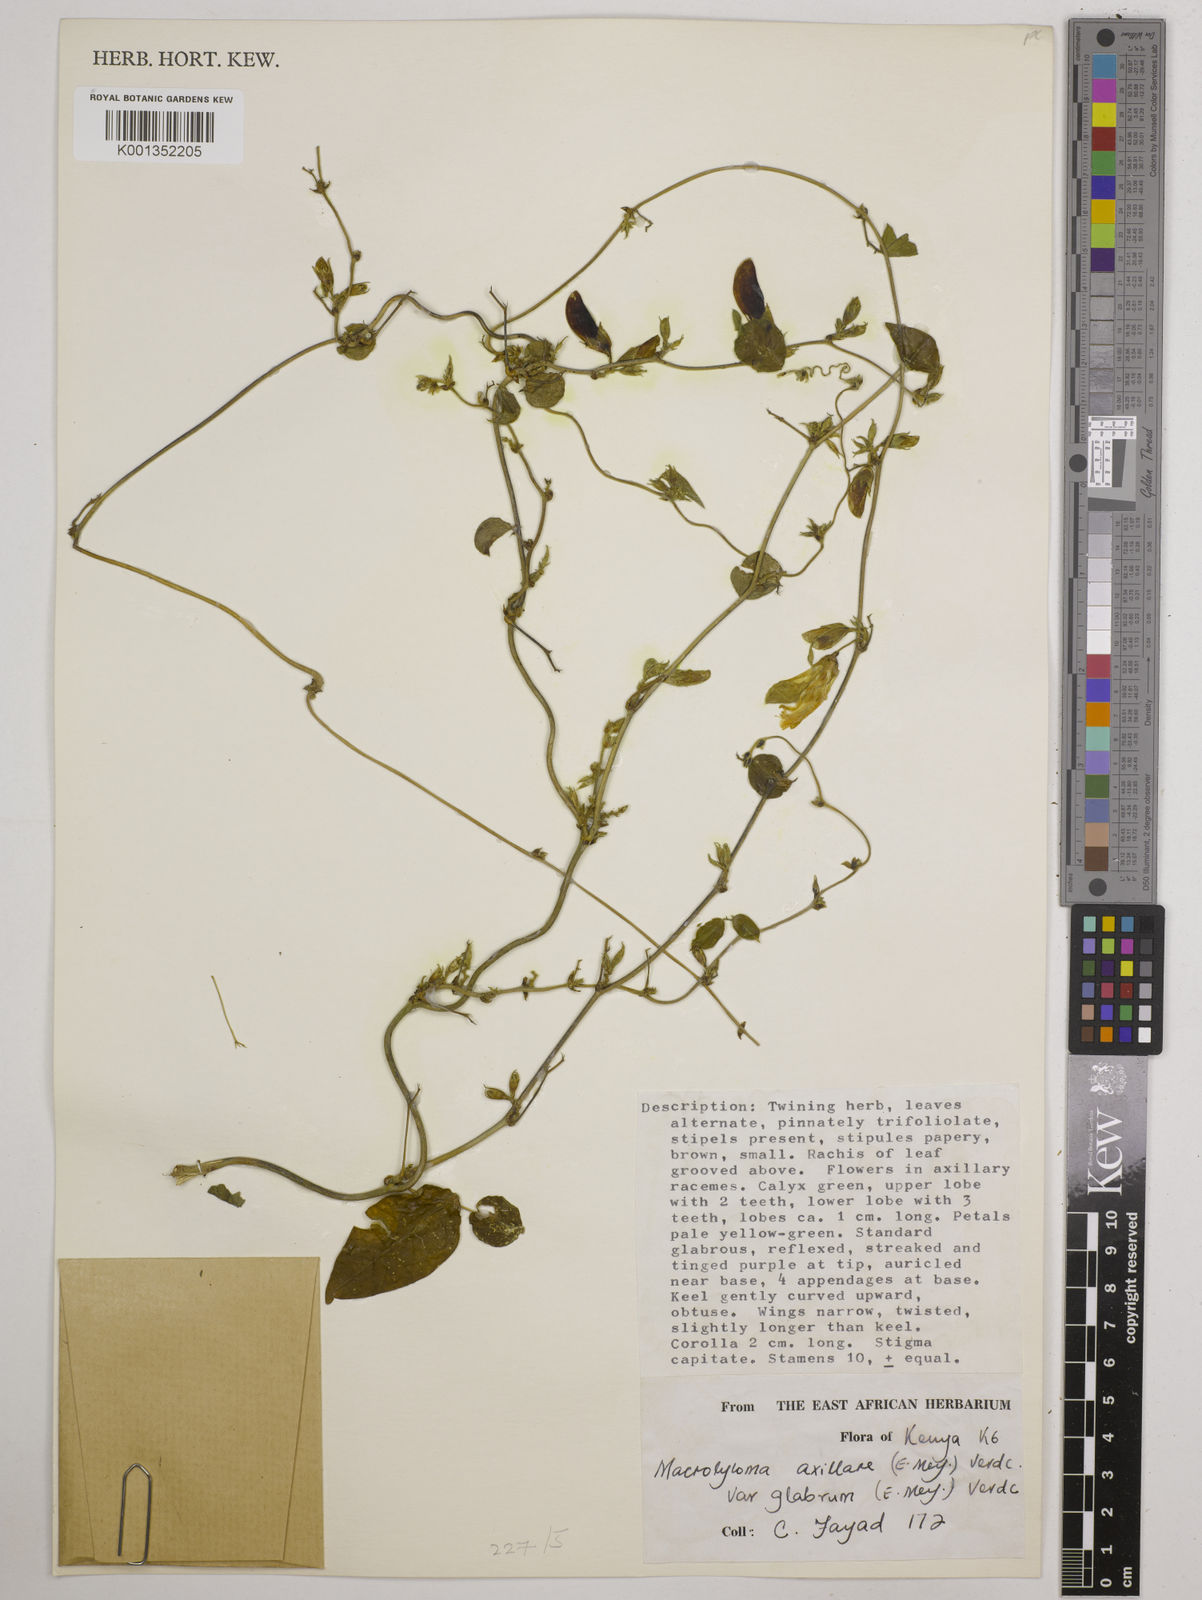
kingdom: Plantae
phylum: Tracheophyta
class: Magnoliopsida
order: Fabales
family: Fabaceae
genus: Macrotyloma
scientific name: Macrotyloma
